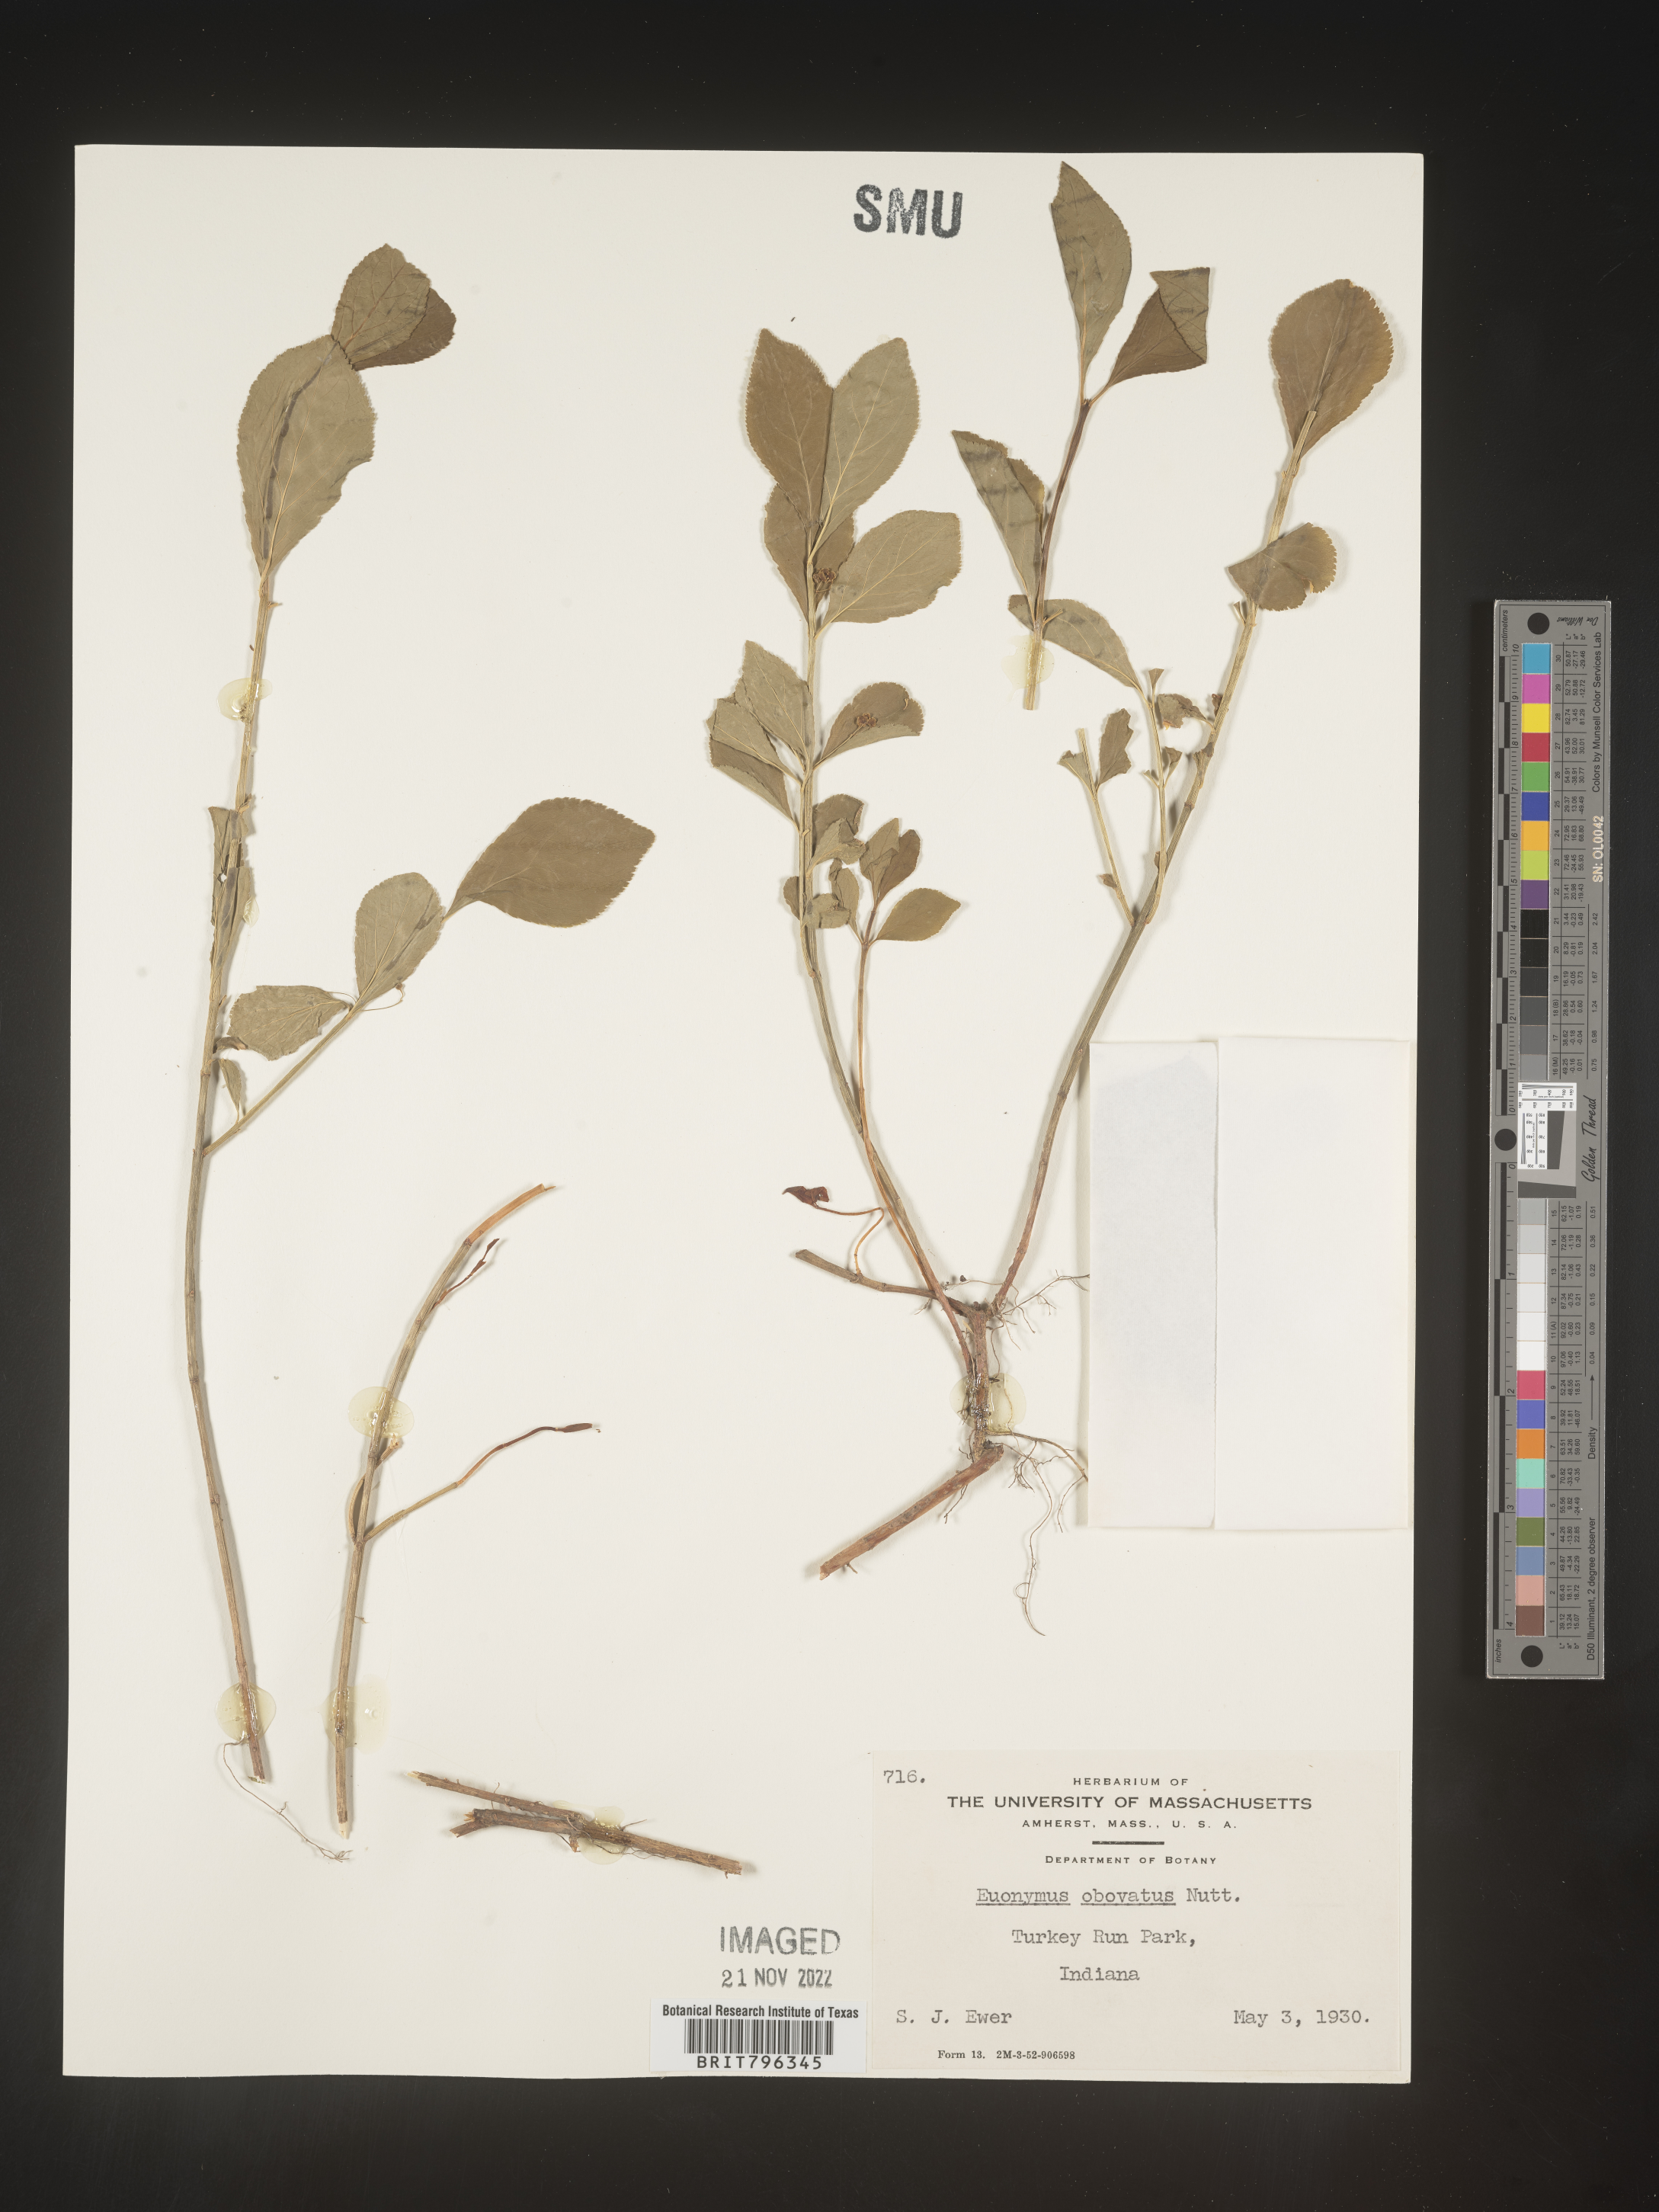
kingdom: Plantae
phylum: Tracheophyta
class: Magnoliopsida
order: Celastrales
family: Celastraceae
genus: Euonymus
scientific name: Euonymus obovatus
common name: Running strawberry-bush
